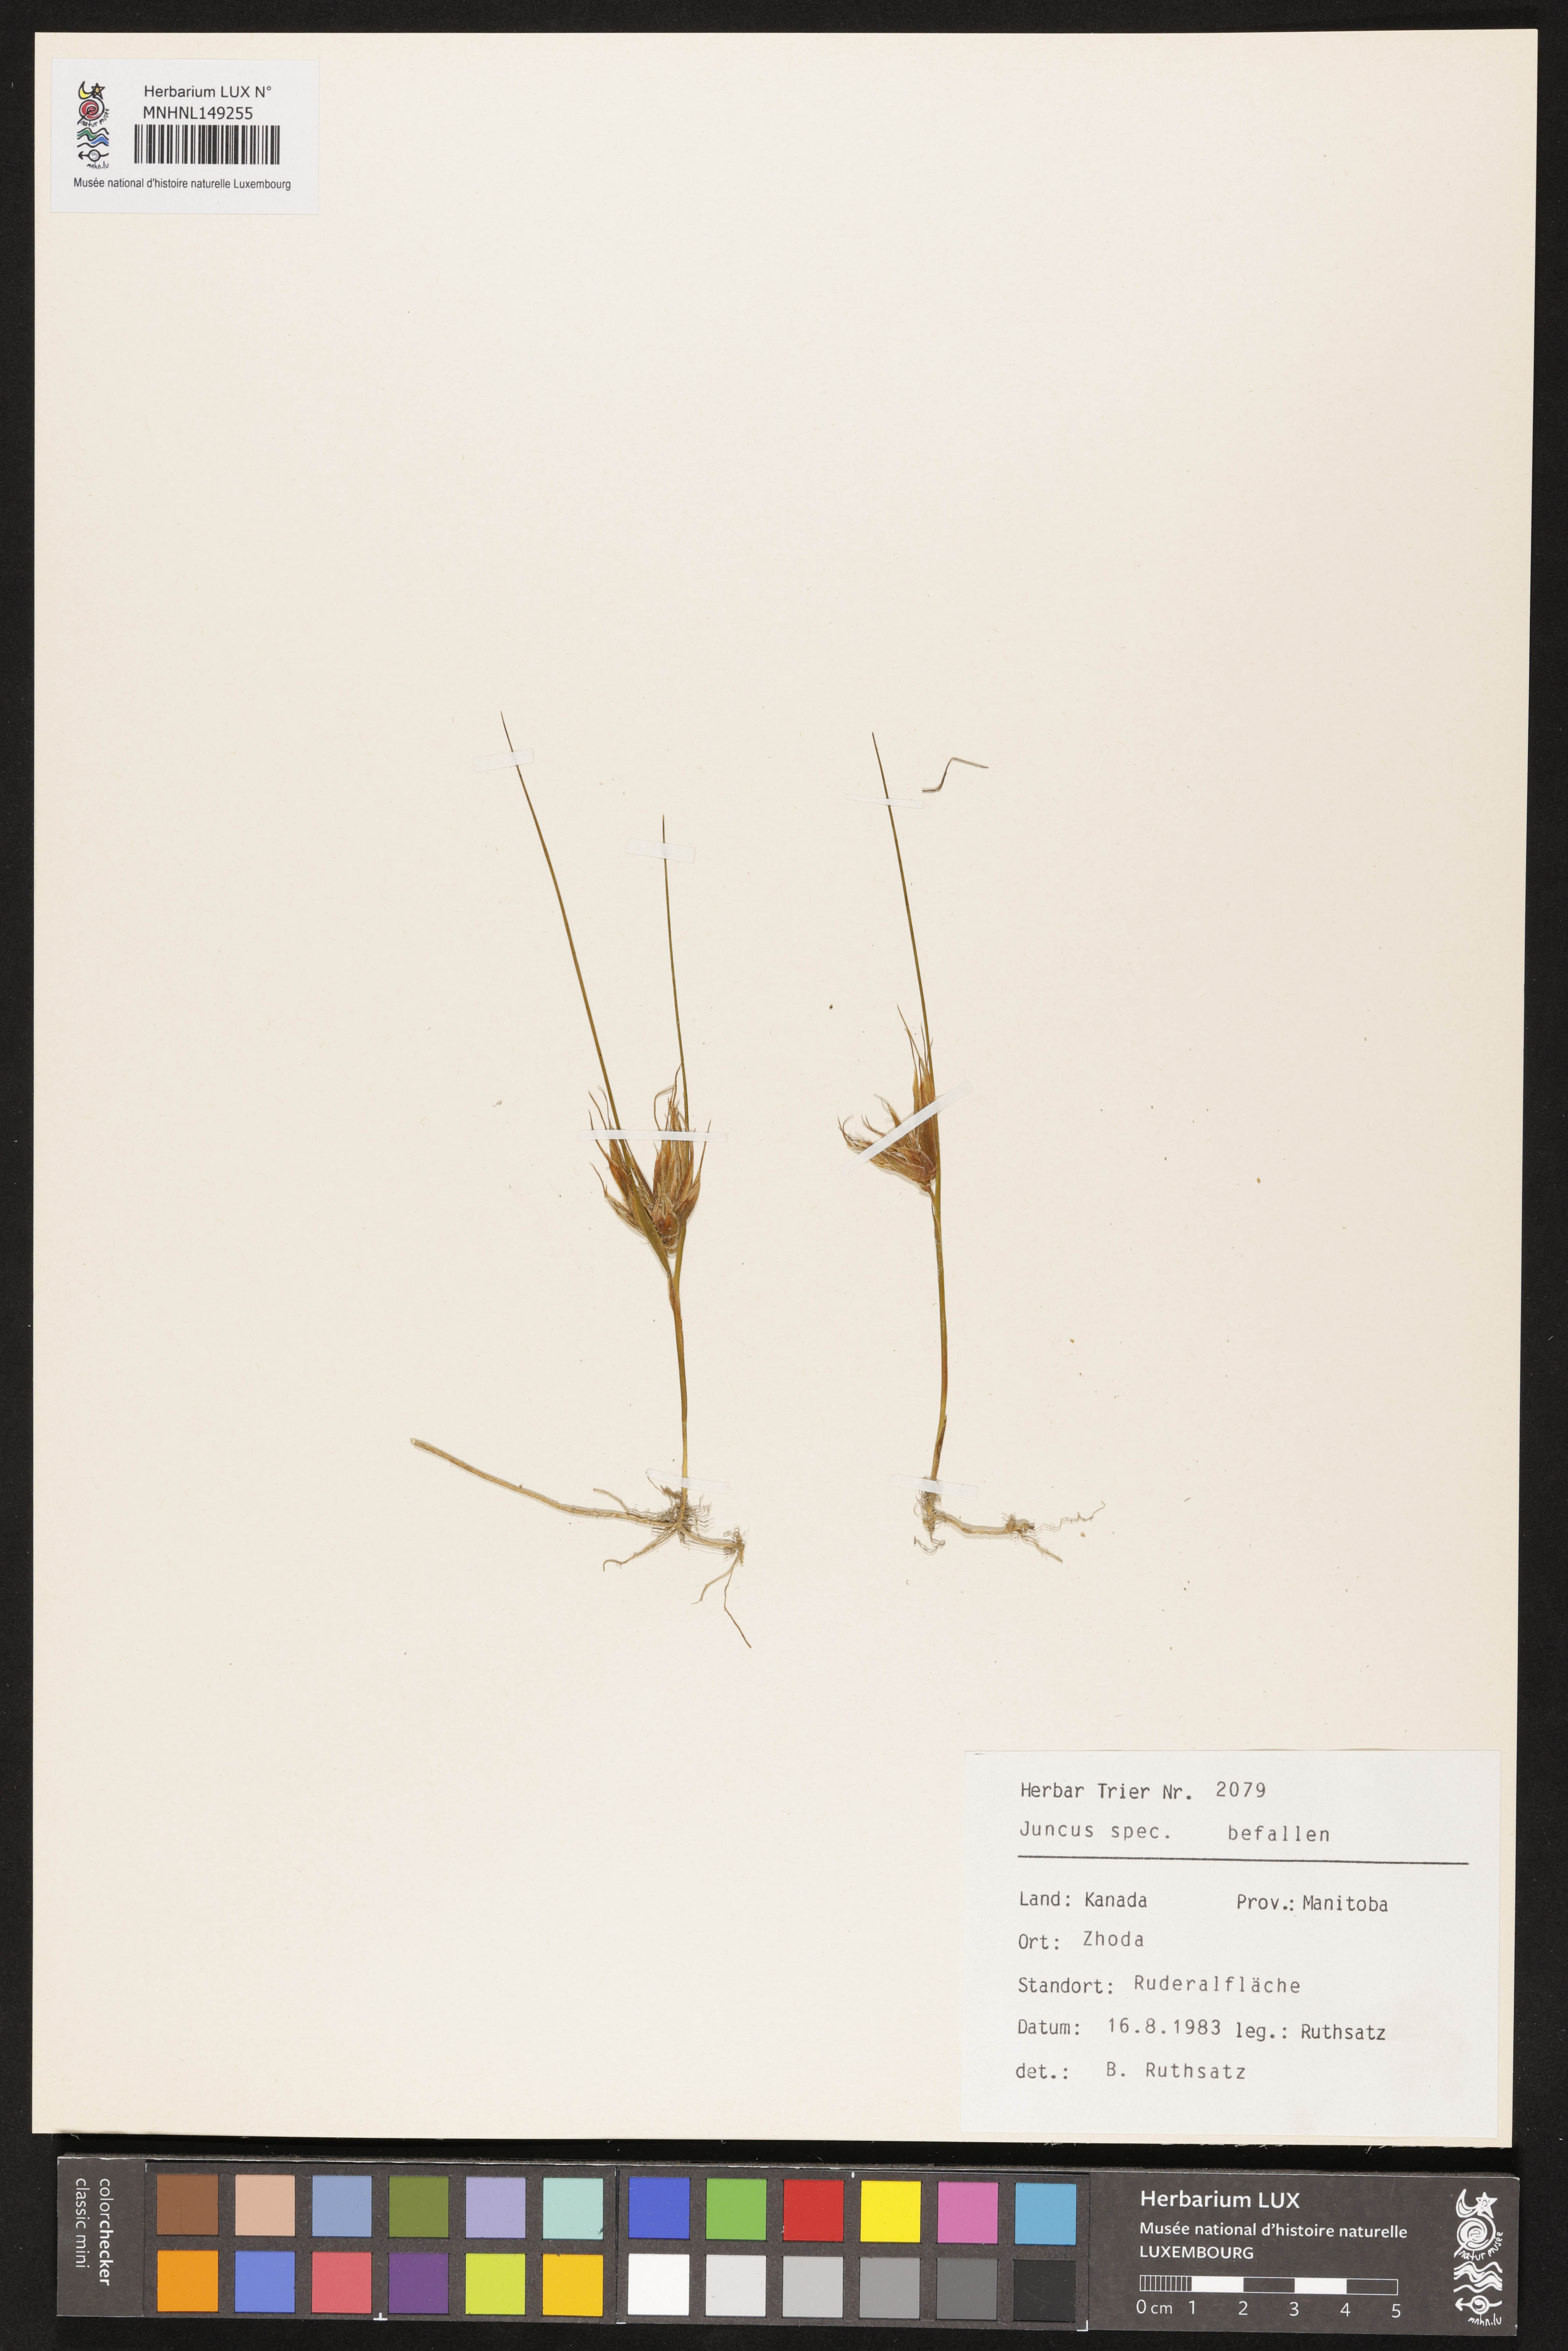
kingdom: Plantae
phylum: Tracheophyta
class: Liliopsida
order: Poales
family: Juncaceae
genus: Juncus
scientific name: Juncus
